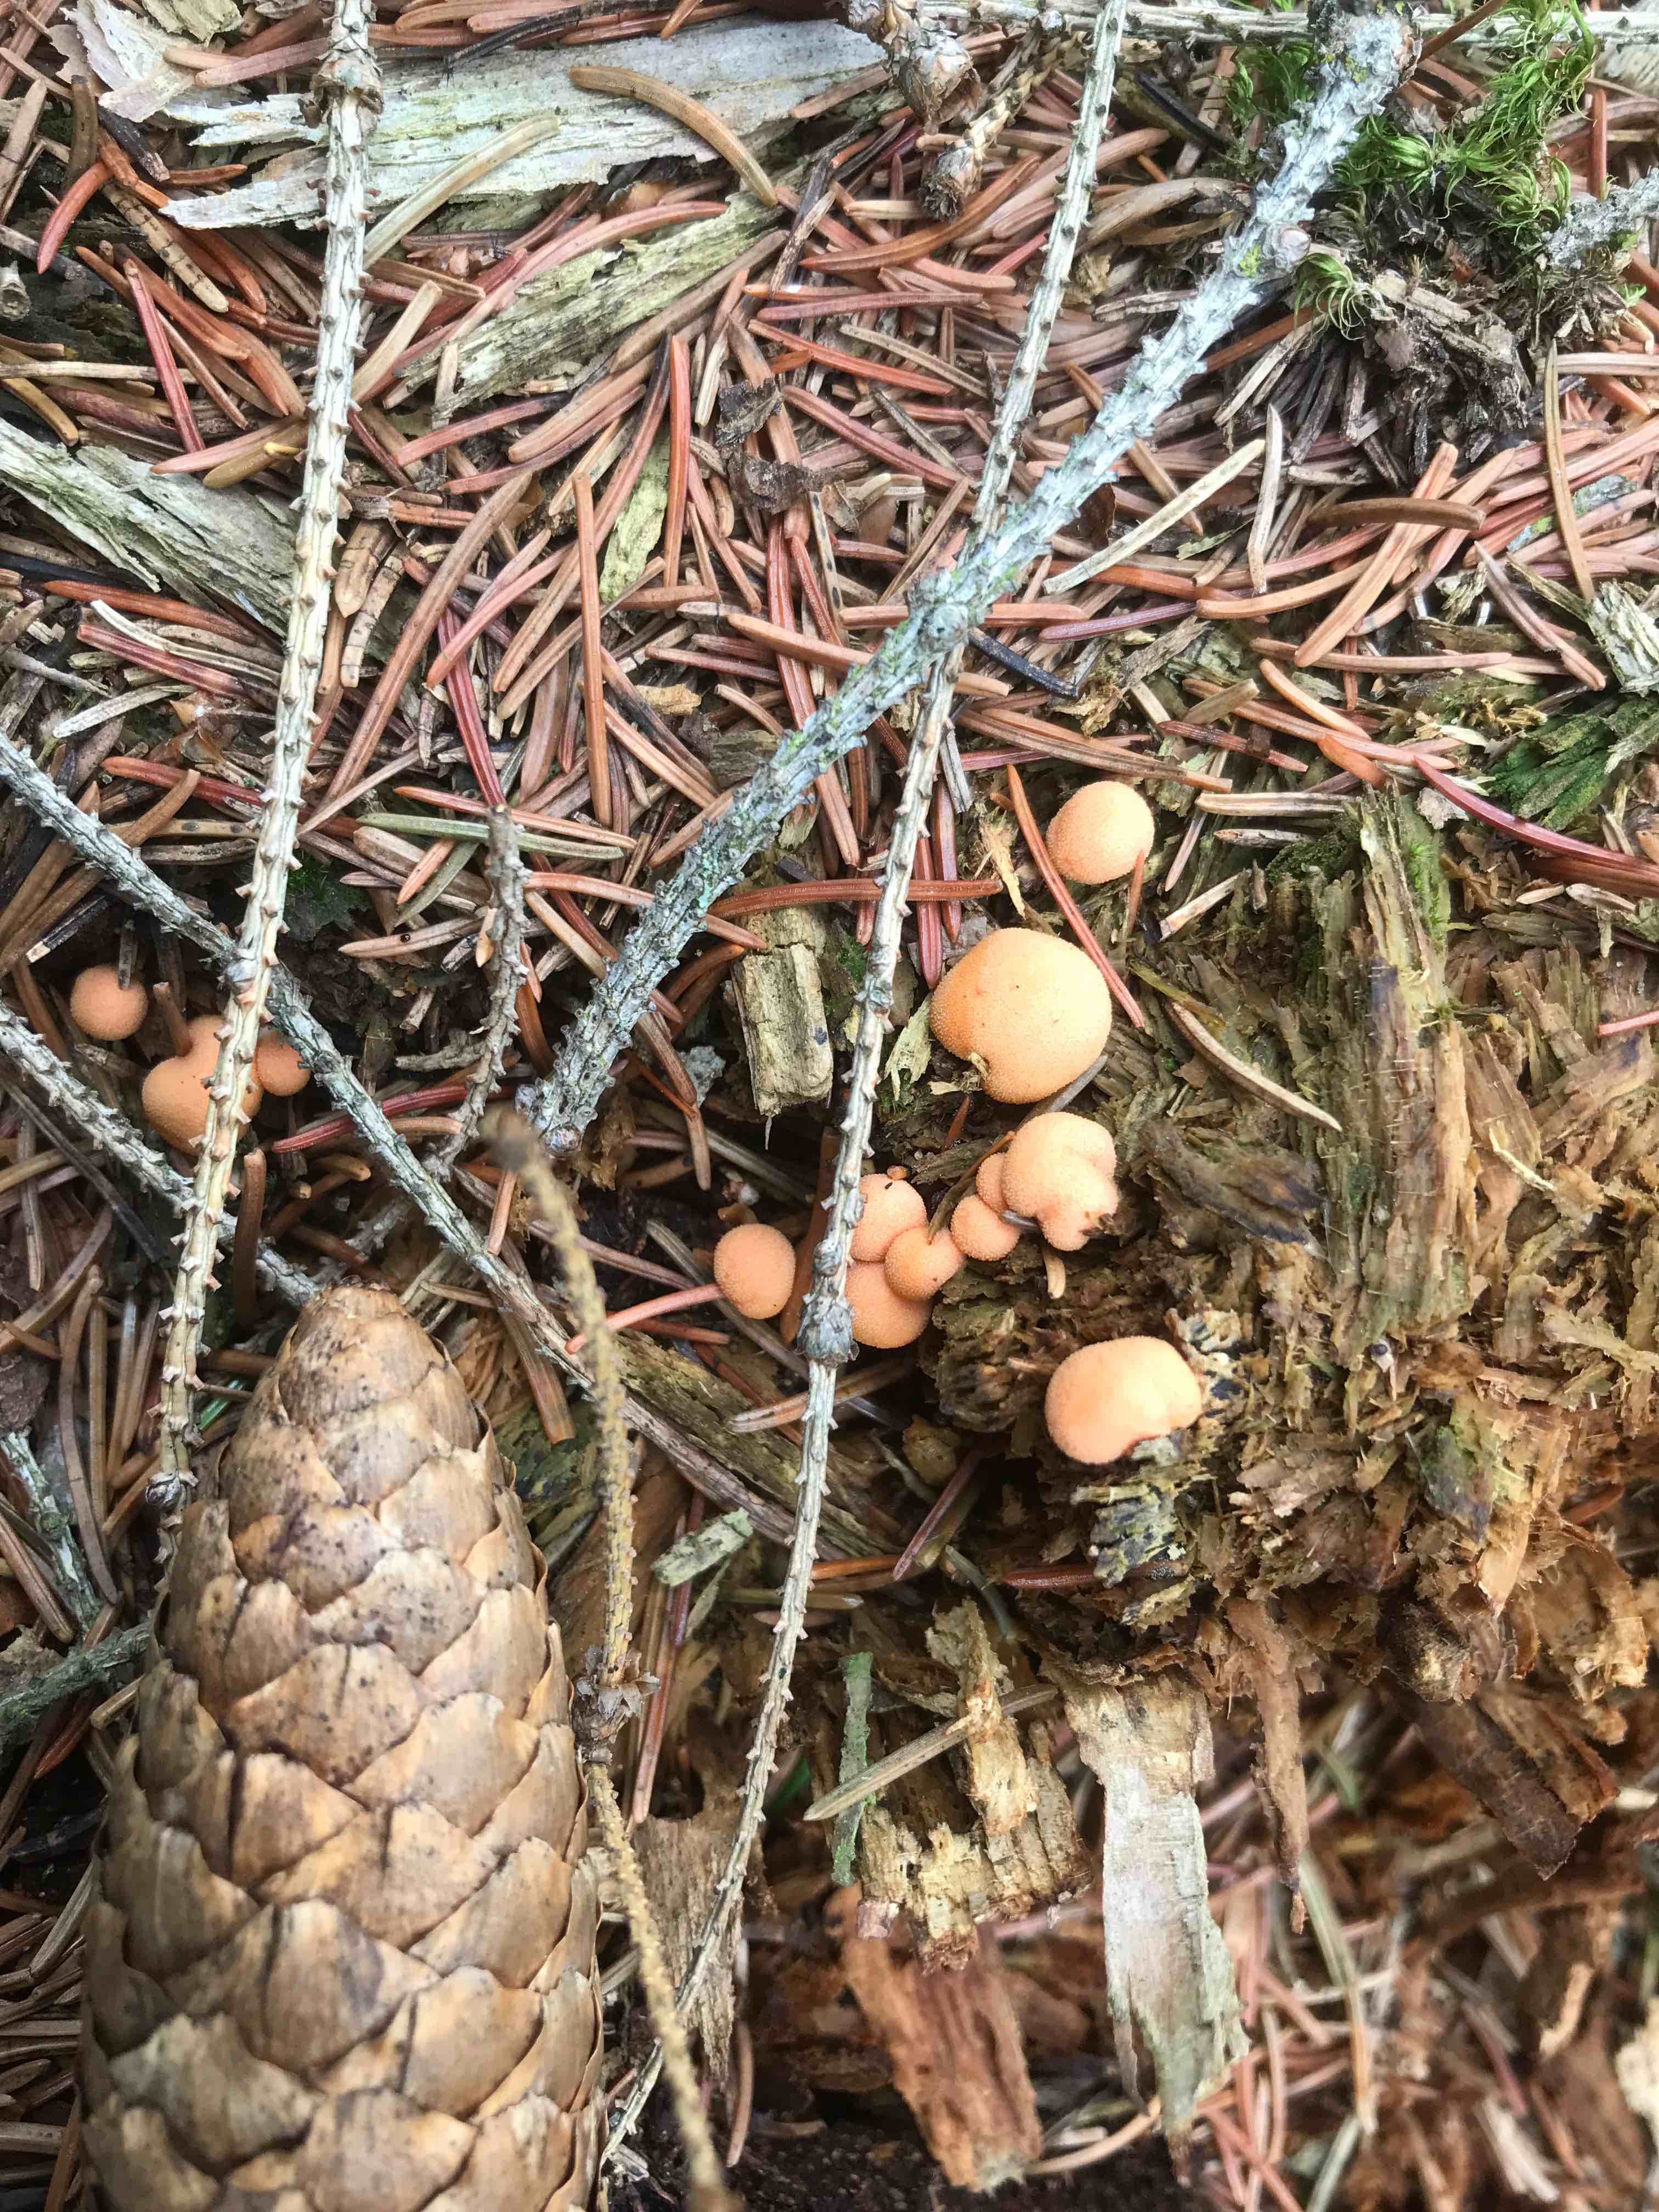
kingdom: Protozoa
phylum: Mycetozoa
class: Myxomycetes
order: Cribrariales
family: Tubiferaceae
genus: Lycogala
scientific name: Lycogala epidendrum
